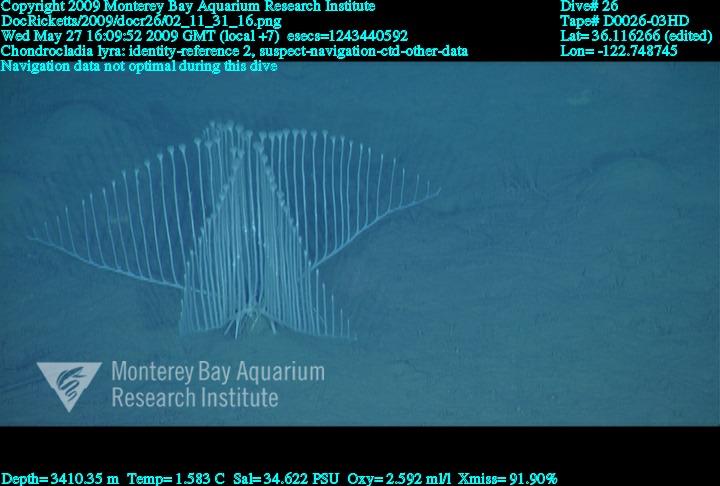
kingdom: Animalia
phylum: Porifera
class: Demospongiae
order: Poecilosclerida
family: Cladorhizidae
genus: Chondrocladia
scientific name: Chondrocladia lyra
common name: Harp sponge
